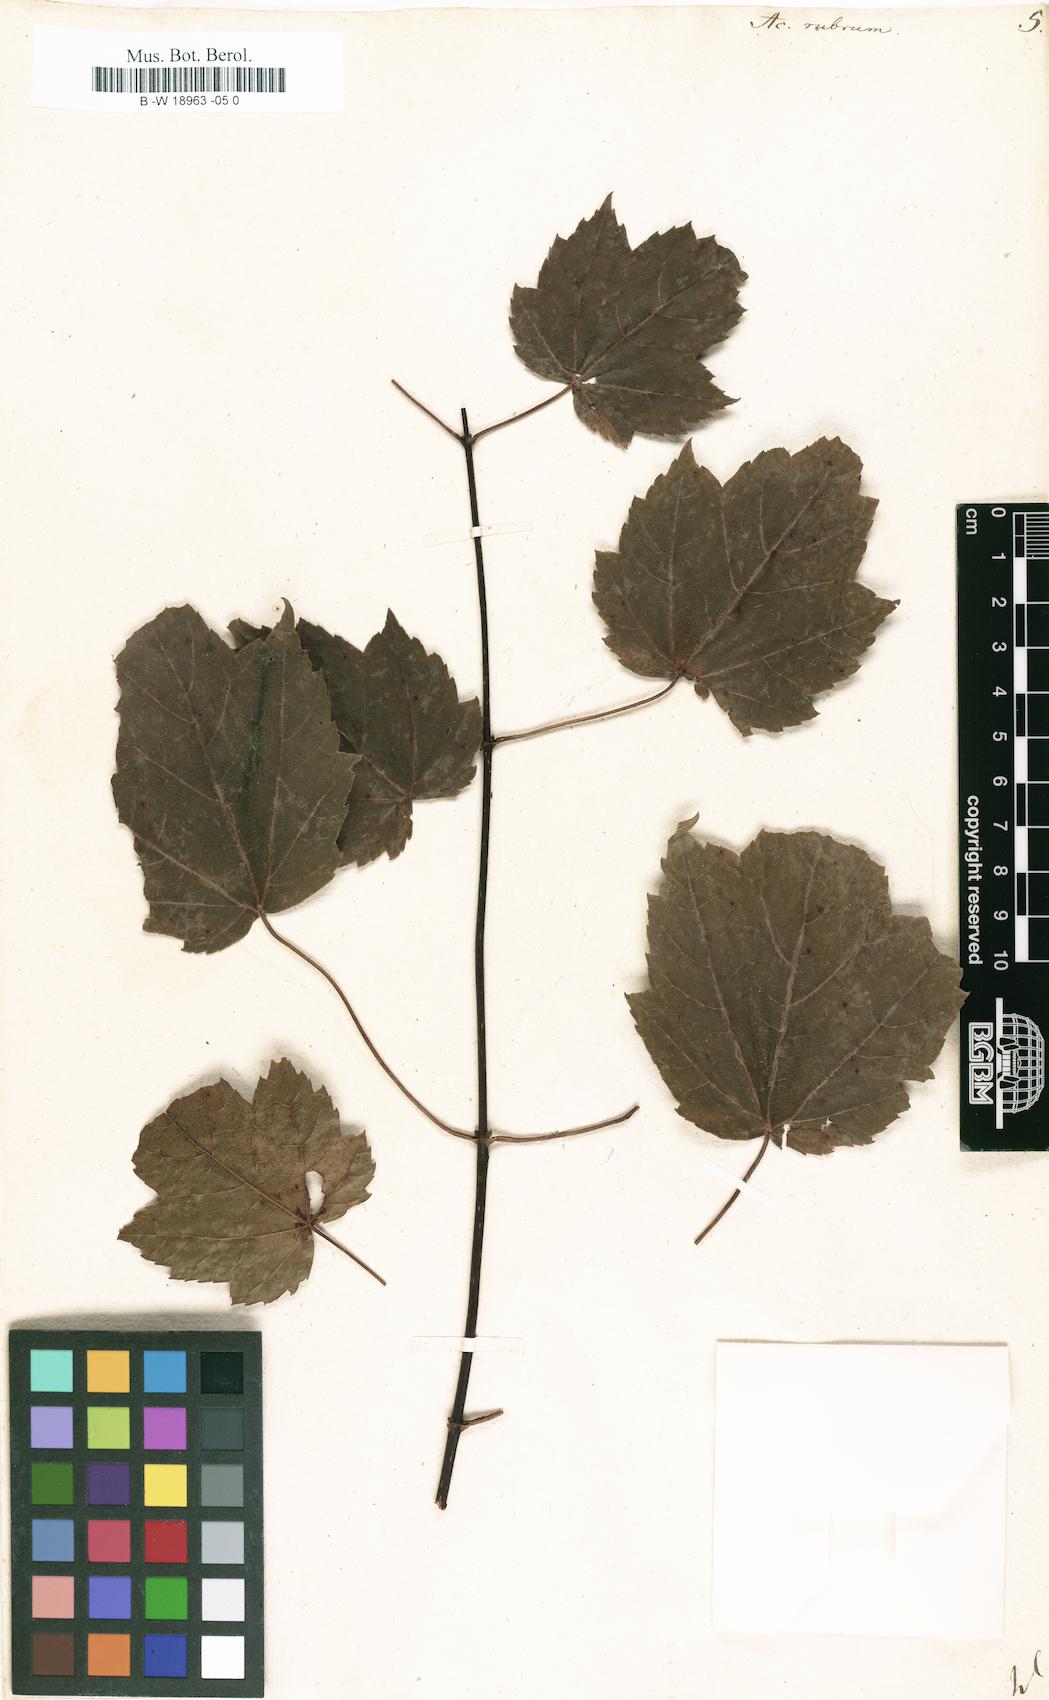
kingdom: Plantae
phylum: Tracheophyta
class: Magnoliopsida
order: Sapindales
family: Sapindaceae
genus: Acer
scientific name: Acer rubrum
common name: Red maple
